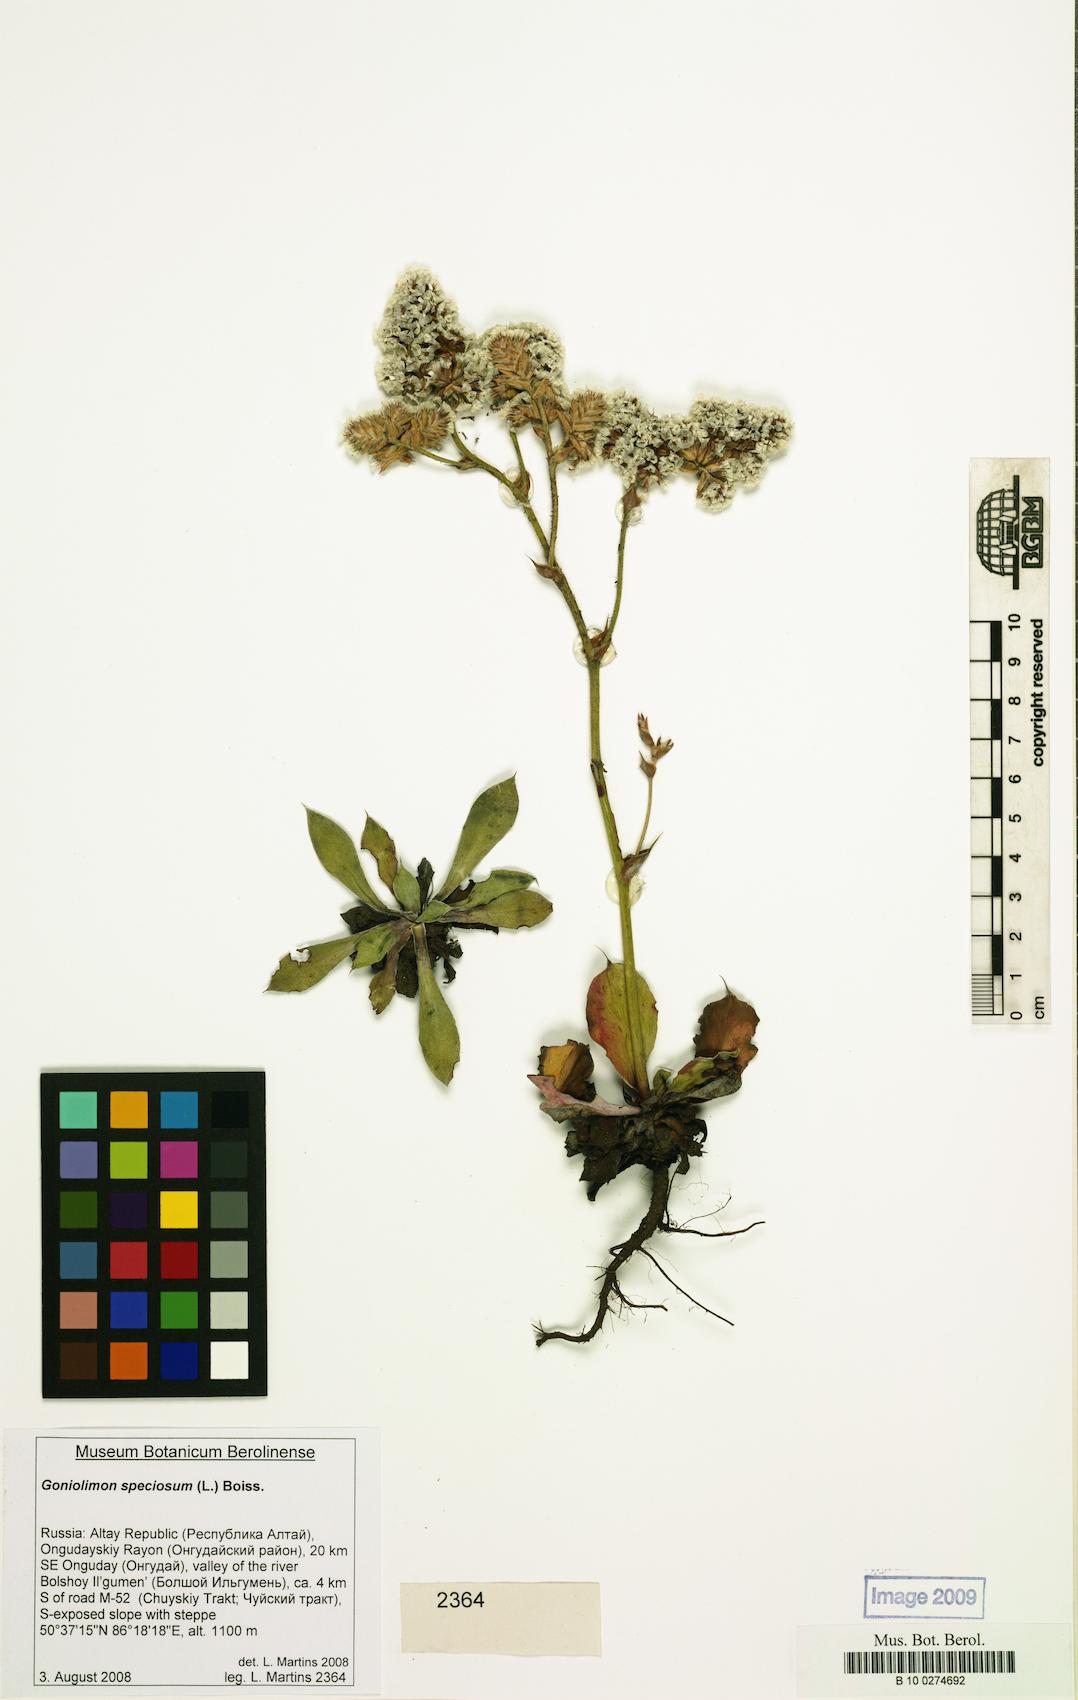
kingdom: Plantae
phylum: Tracheophyta
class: Magnoliopsida
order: Caryophyllales
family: Plumbaginaceae
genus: Goniolimon
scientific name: Goniolimon speciosum
